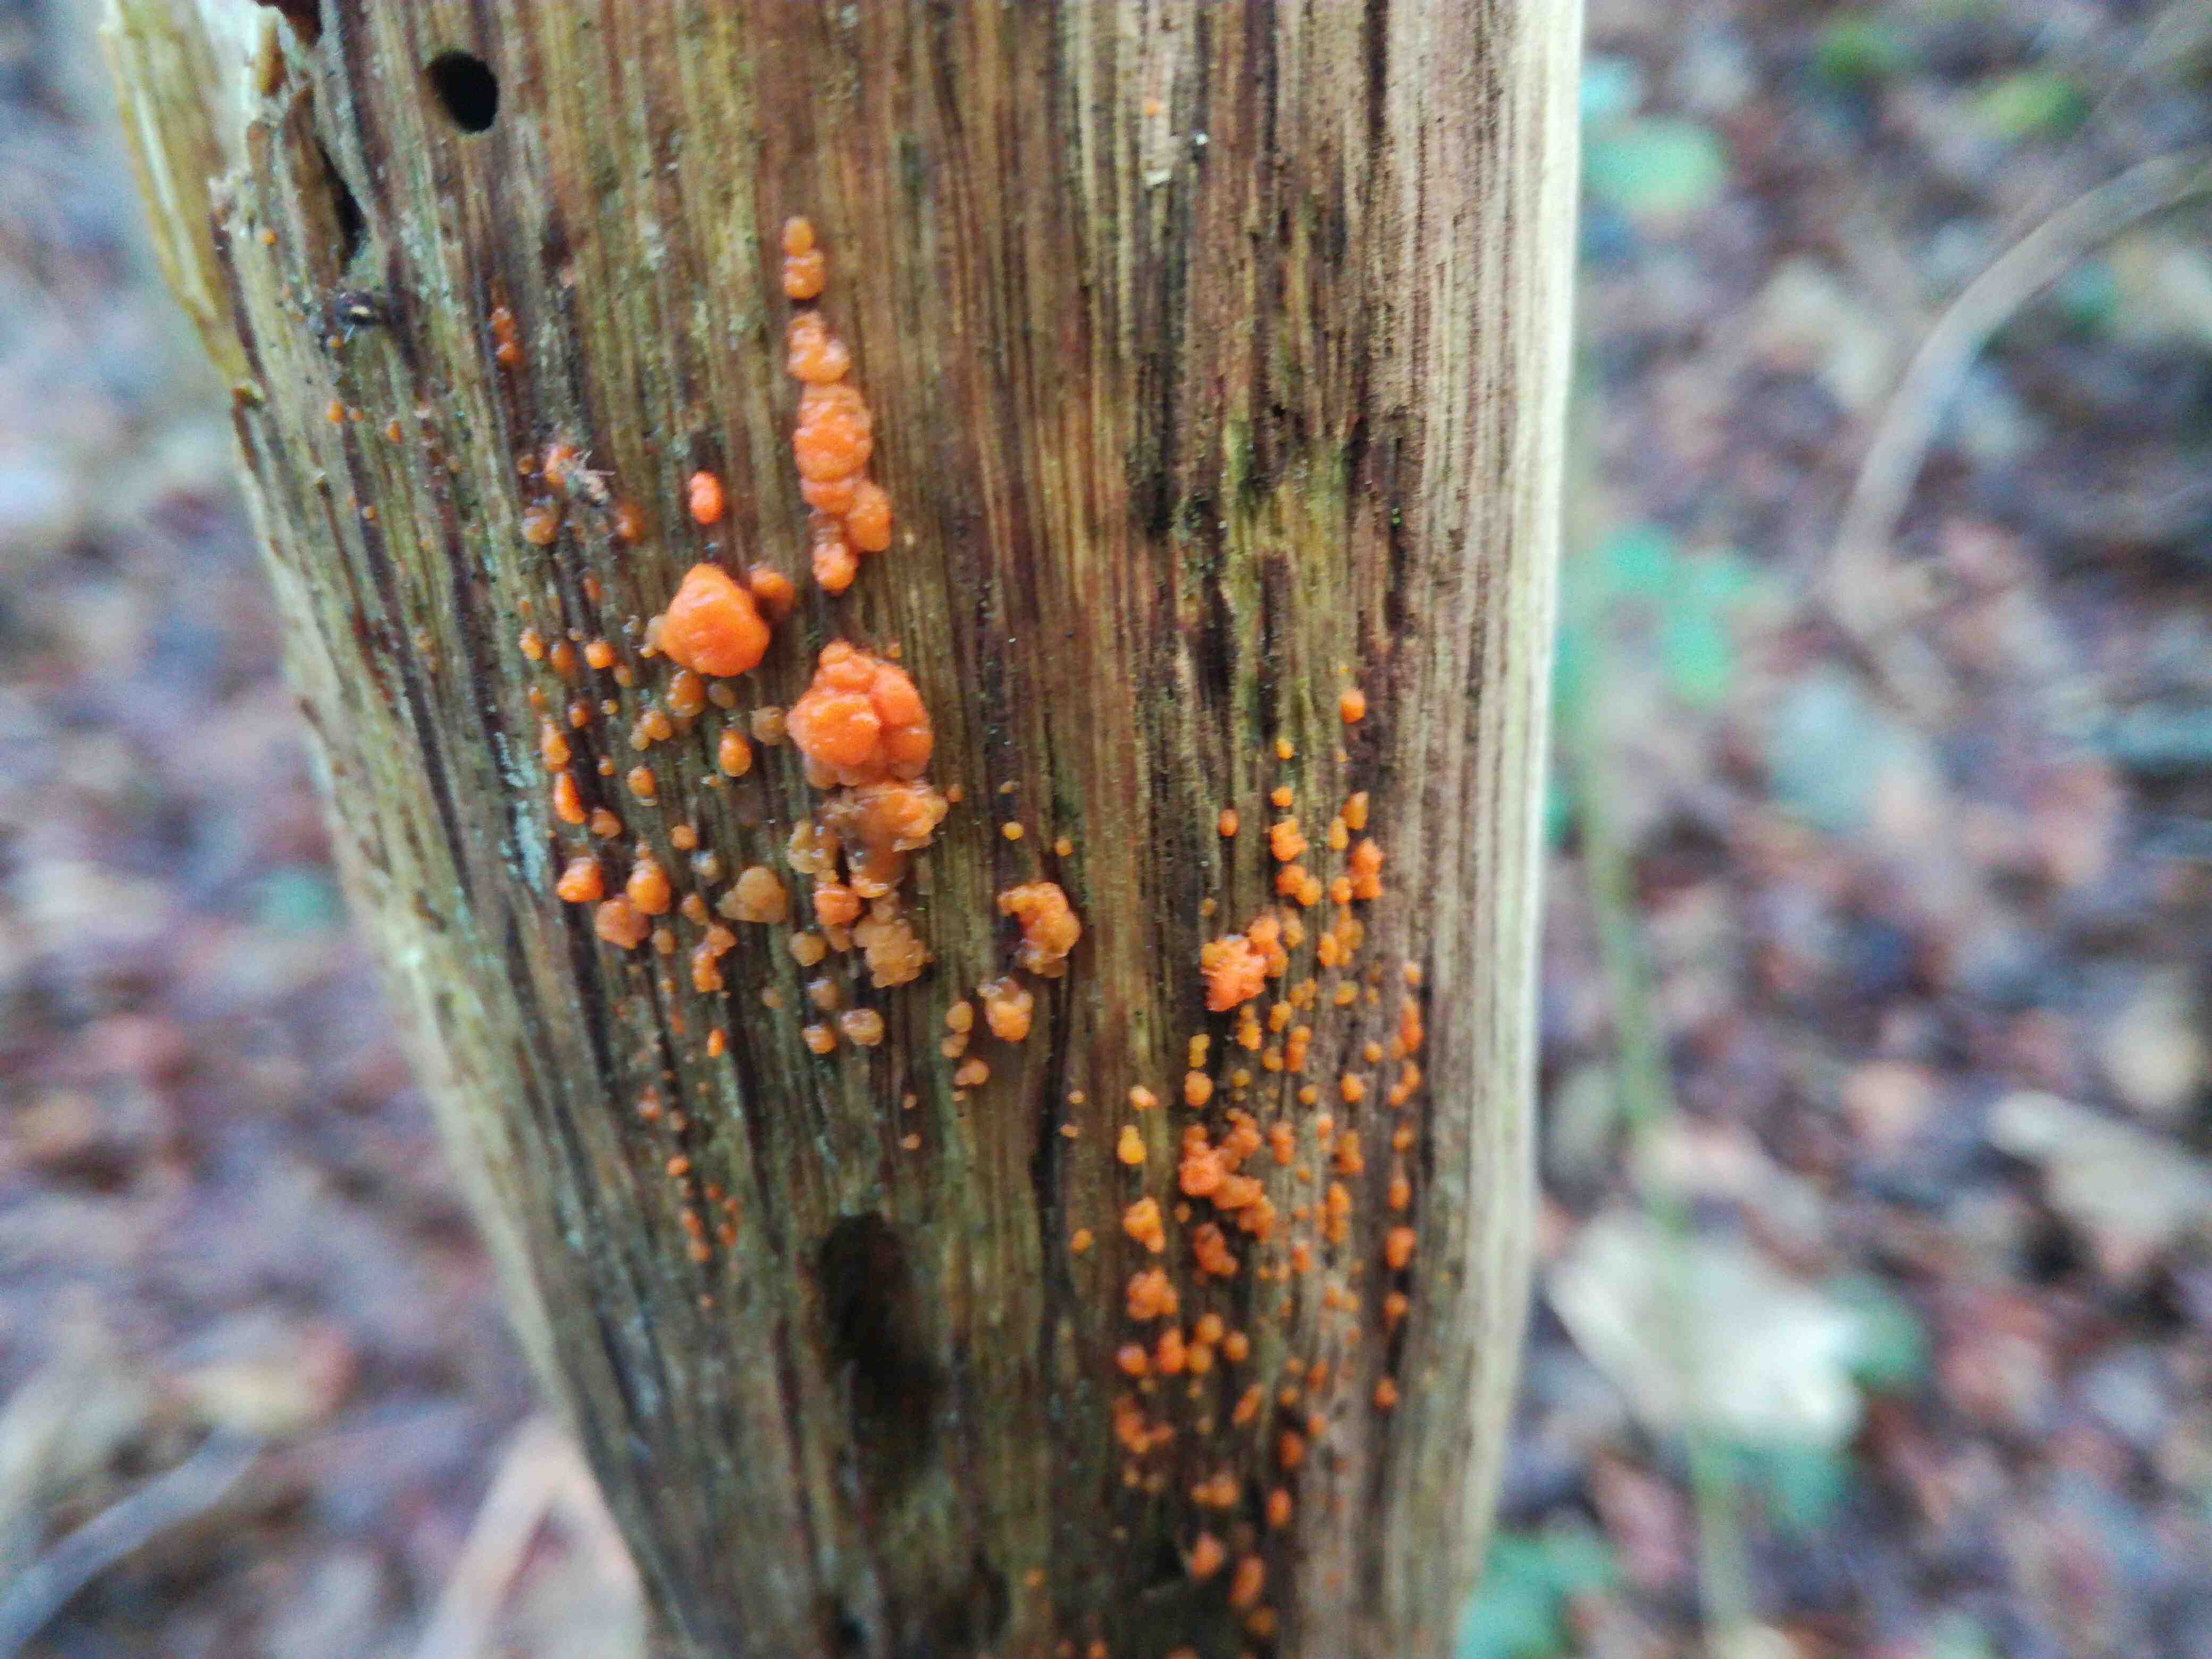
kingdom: Fungi
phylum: Basidiomycota
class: Dacrymycetes
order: Dacrymycetales
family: Dacrymycetaceae
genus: Dacrymyces
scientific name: Dacrymyces stillatus
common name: almindelig tåresvamp
